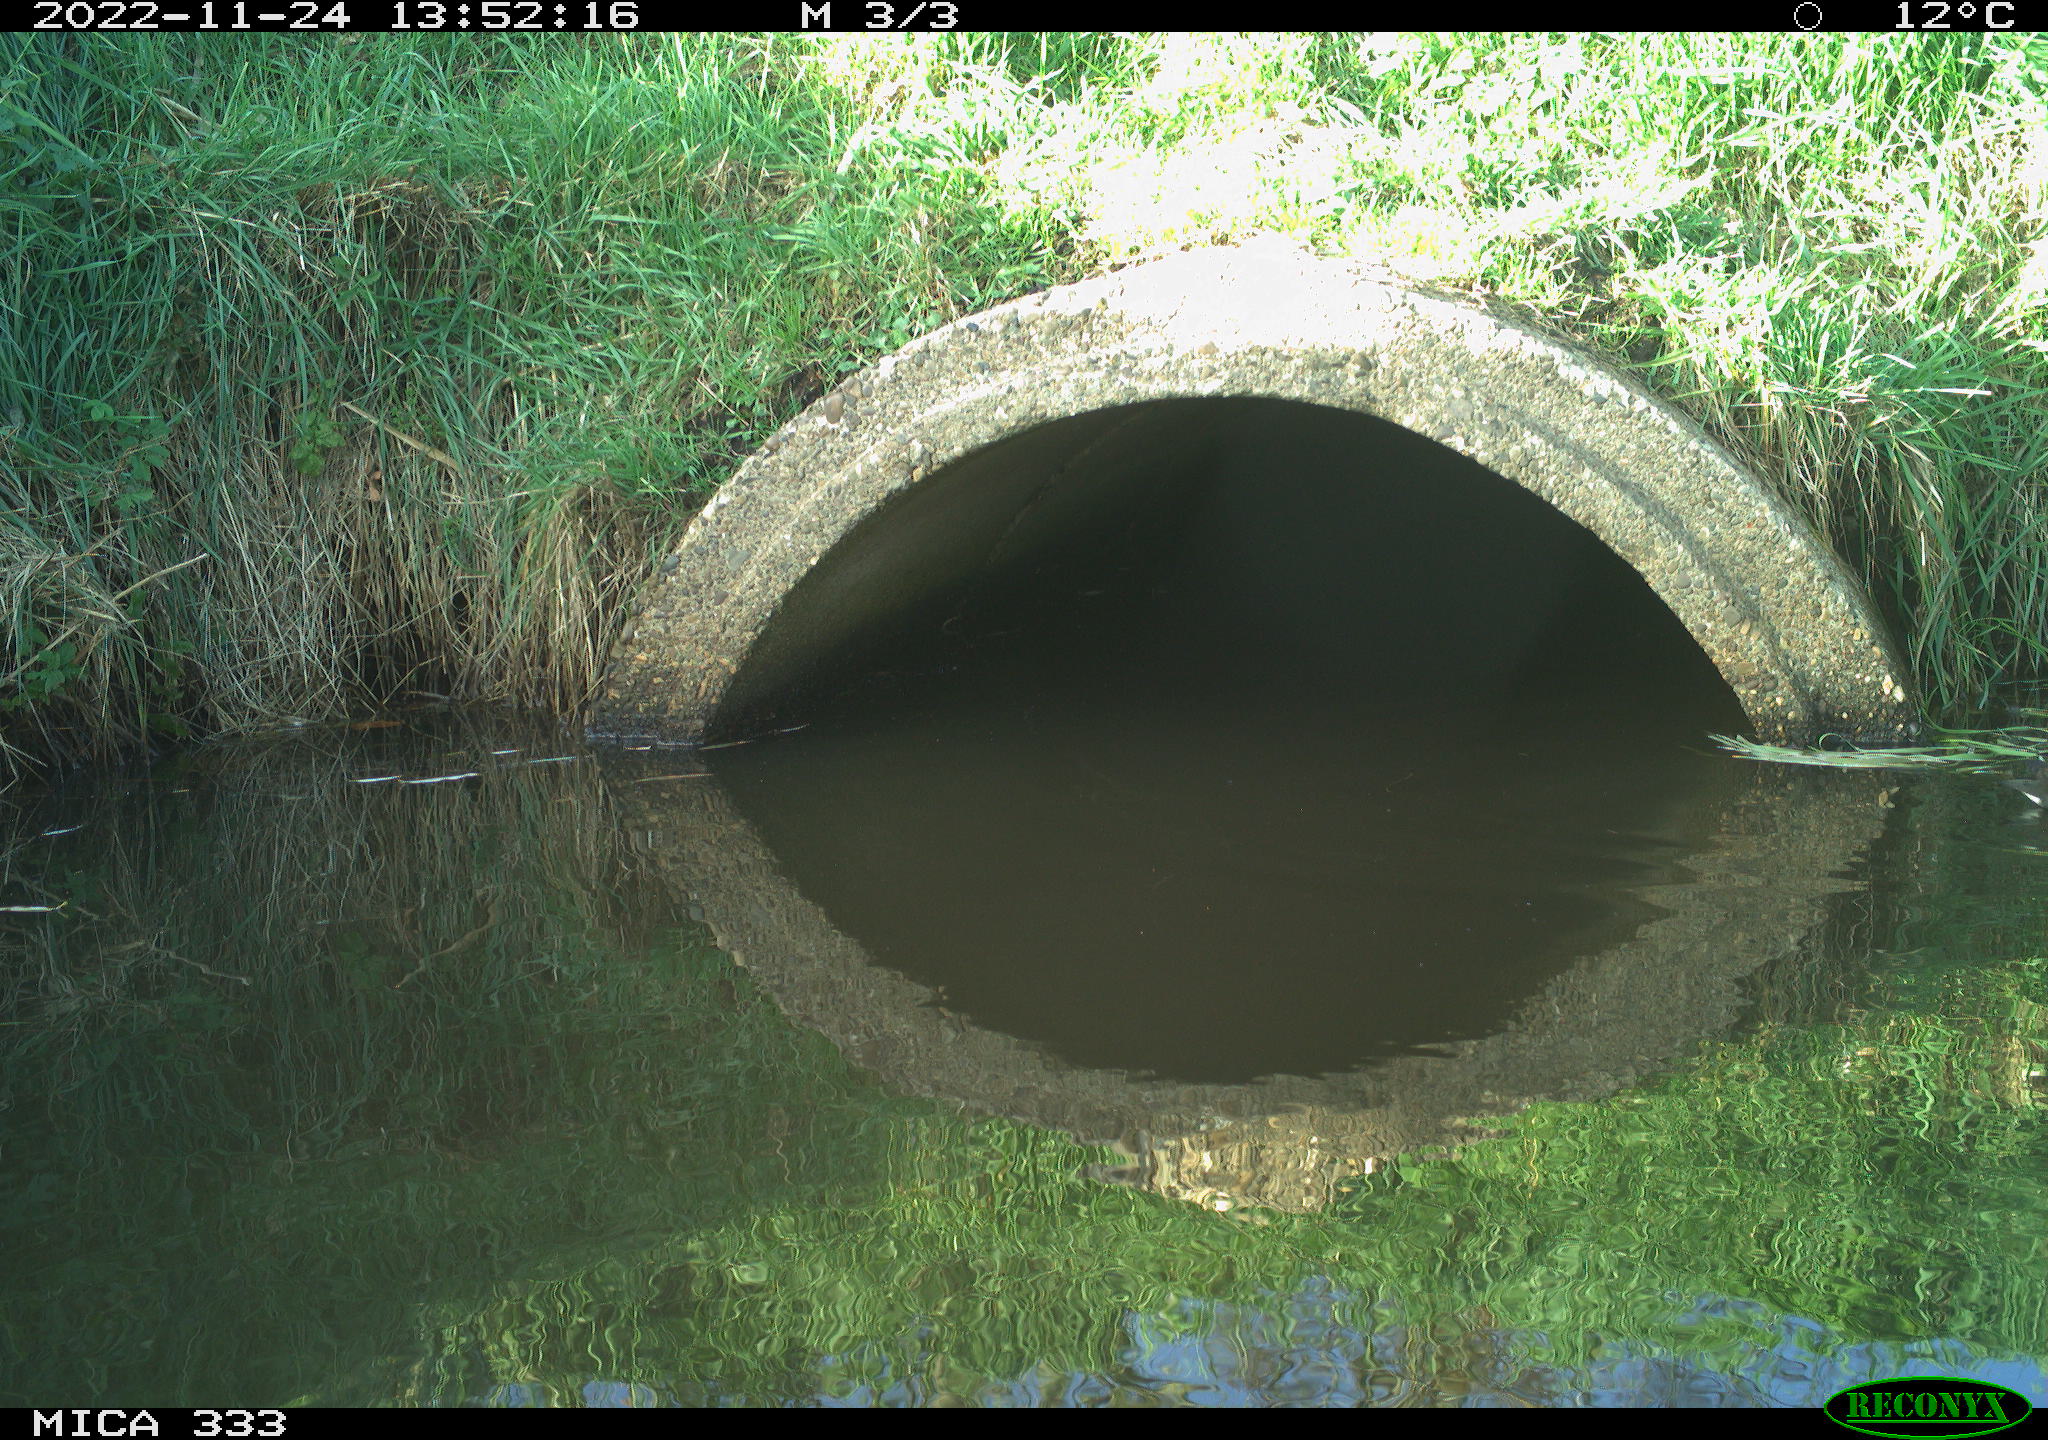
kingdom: Animalia
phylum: Chordata
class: Aves
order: Gruiformes
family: Rallidae
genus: Gallinula
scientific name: Gallinula chloropus
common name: Common moorhen
